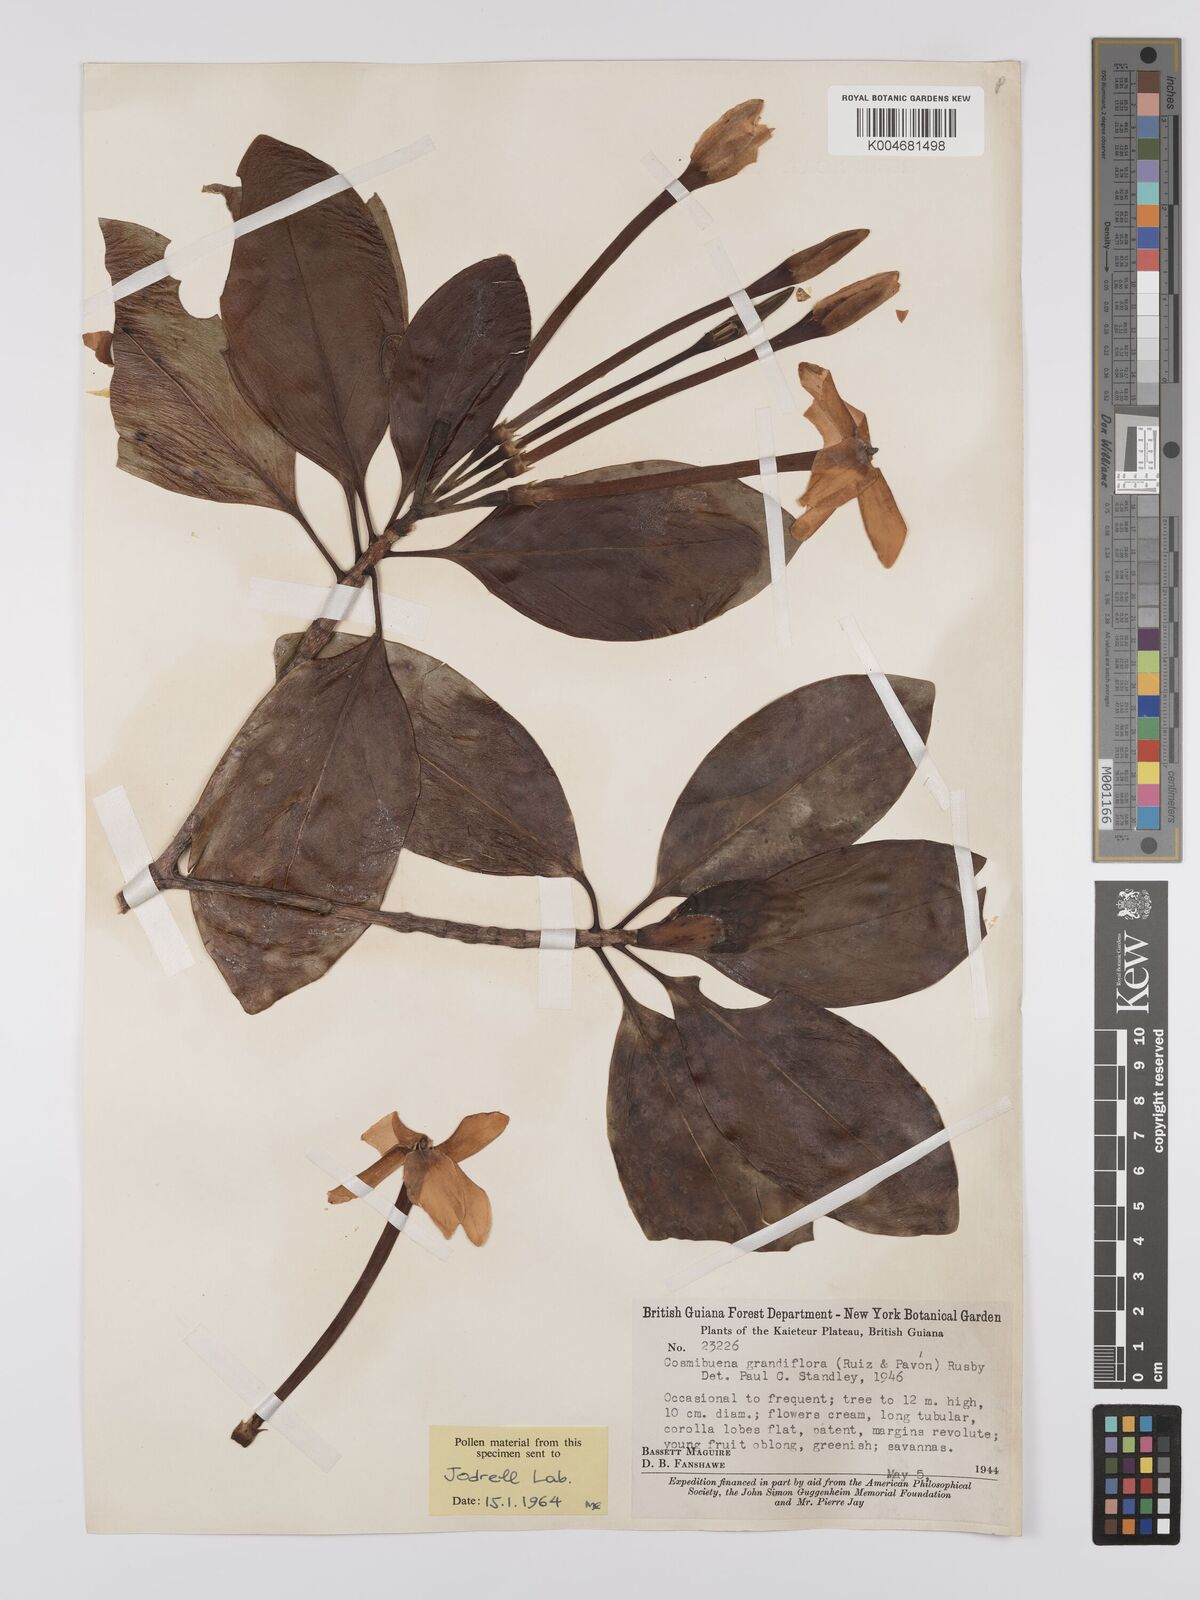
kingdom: Plantae
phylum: Tracheophyta
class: Magnoliopsida
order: Gentianales
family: Rubiaceae
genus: Cosmibuena
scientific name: Cosmibuena grandiflora
